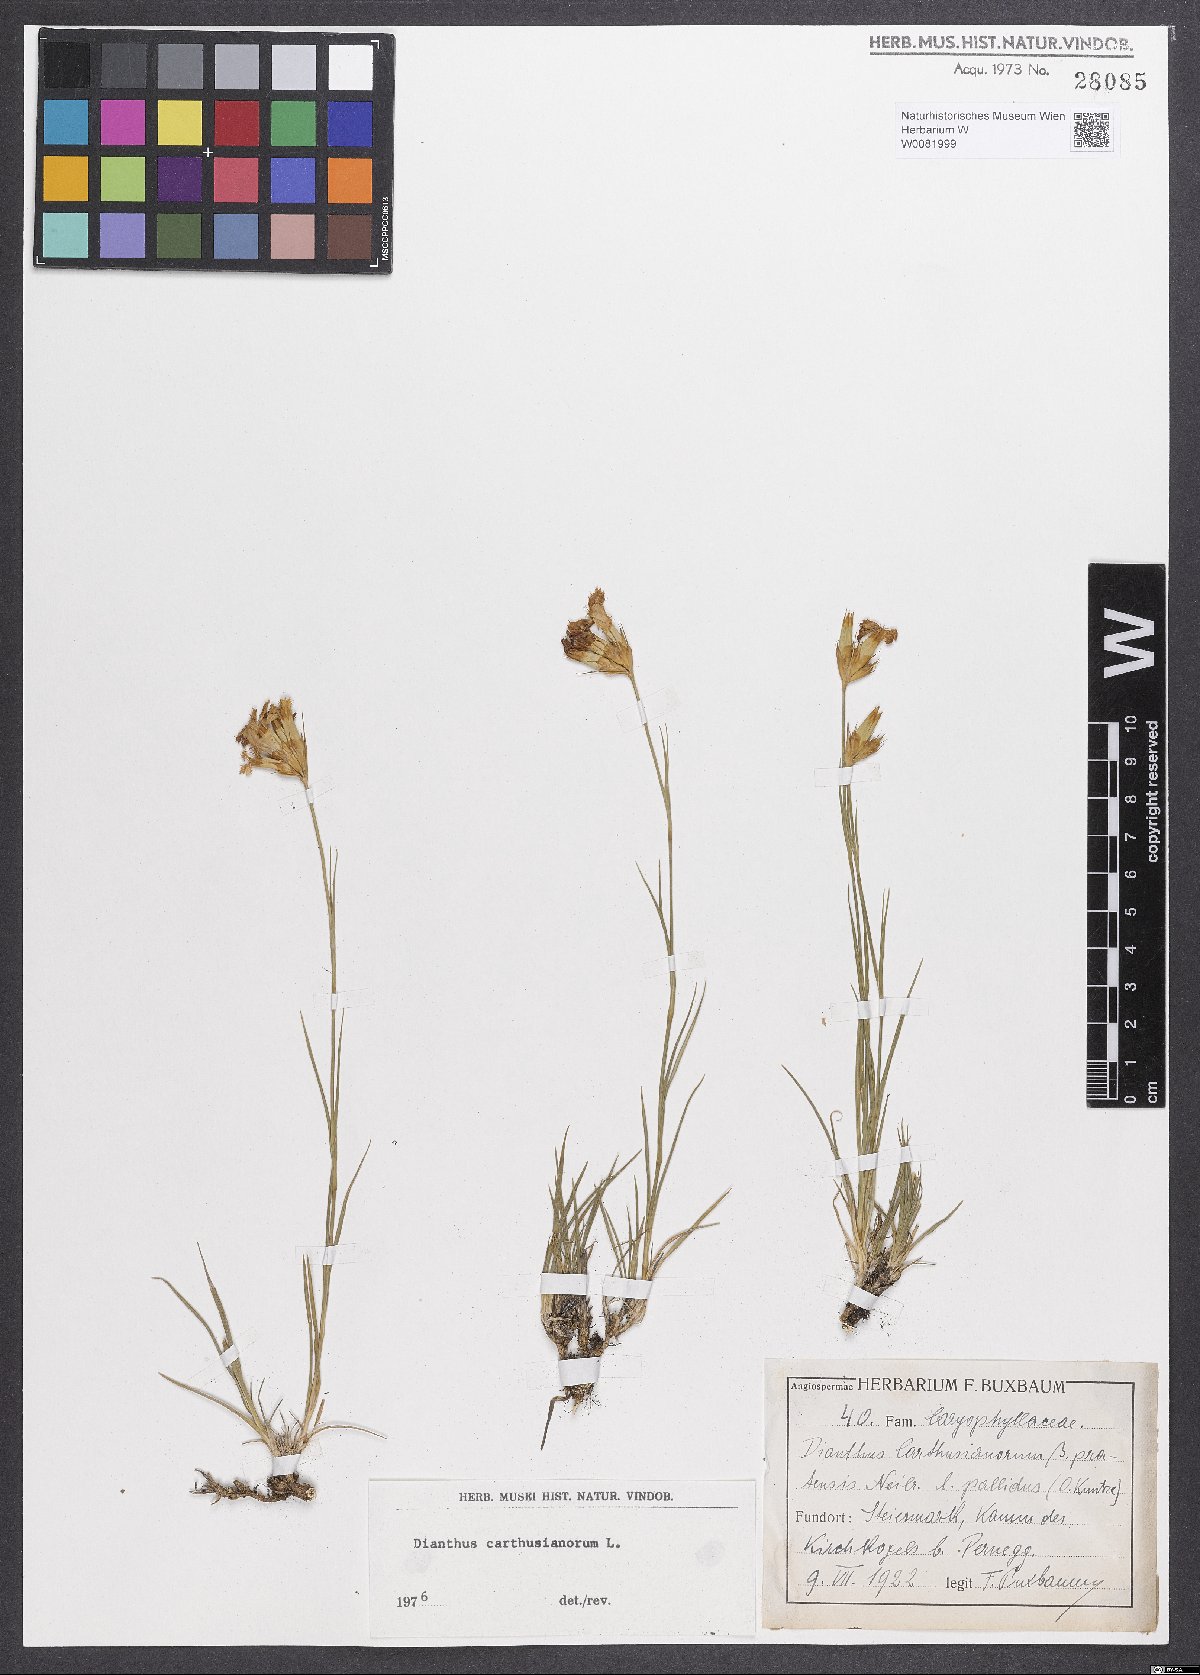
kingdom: Plantae
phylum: Tracheophyta
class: Magnoliopsida
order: Caryophyllales
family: Caryophyllaceae
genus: Dianthus
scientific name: Dianthus carthusianorum
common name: Carthusian pink
